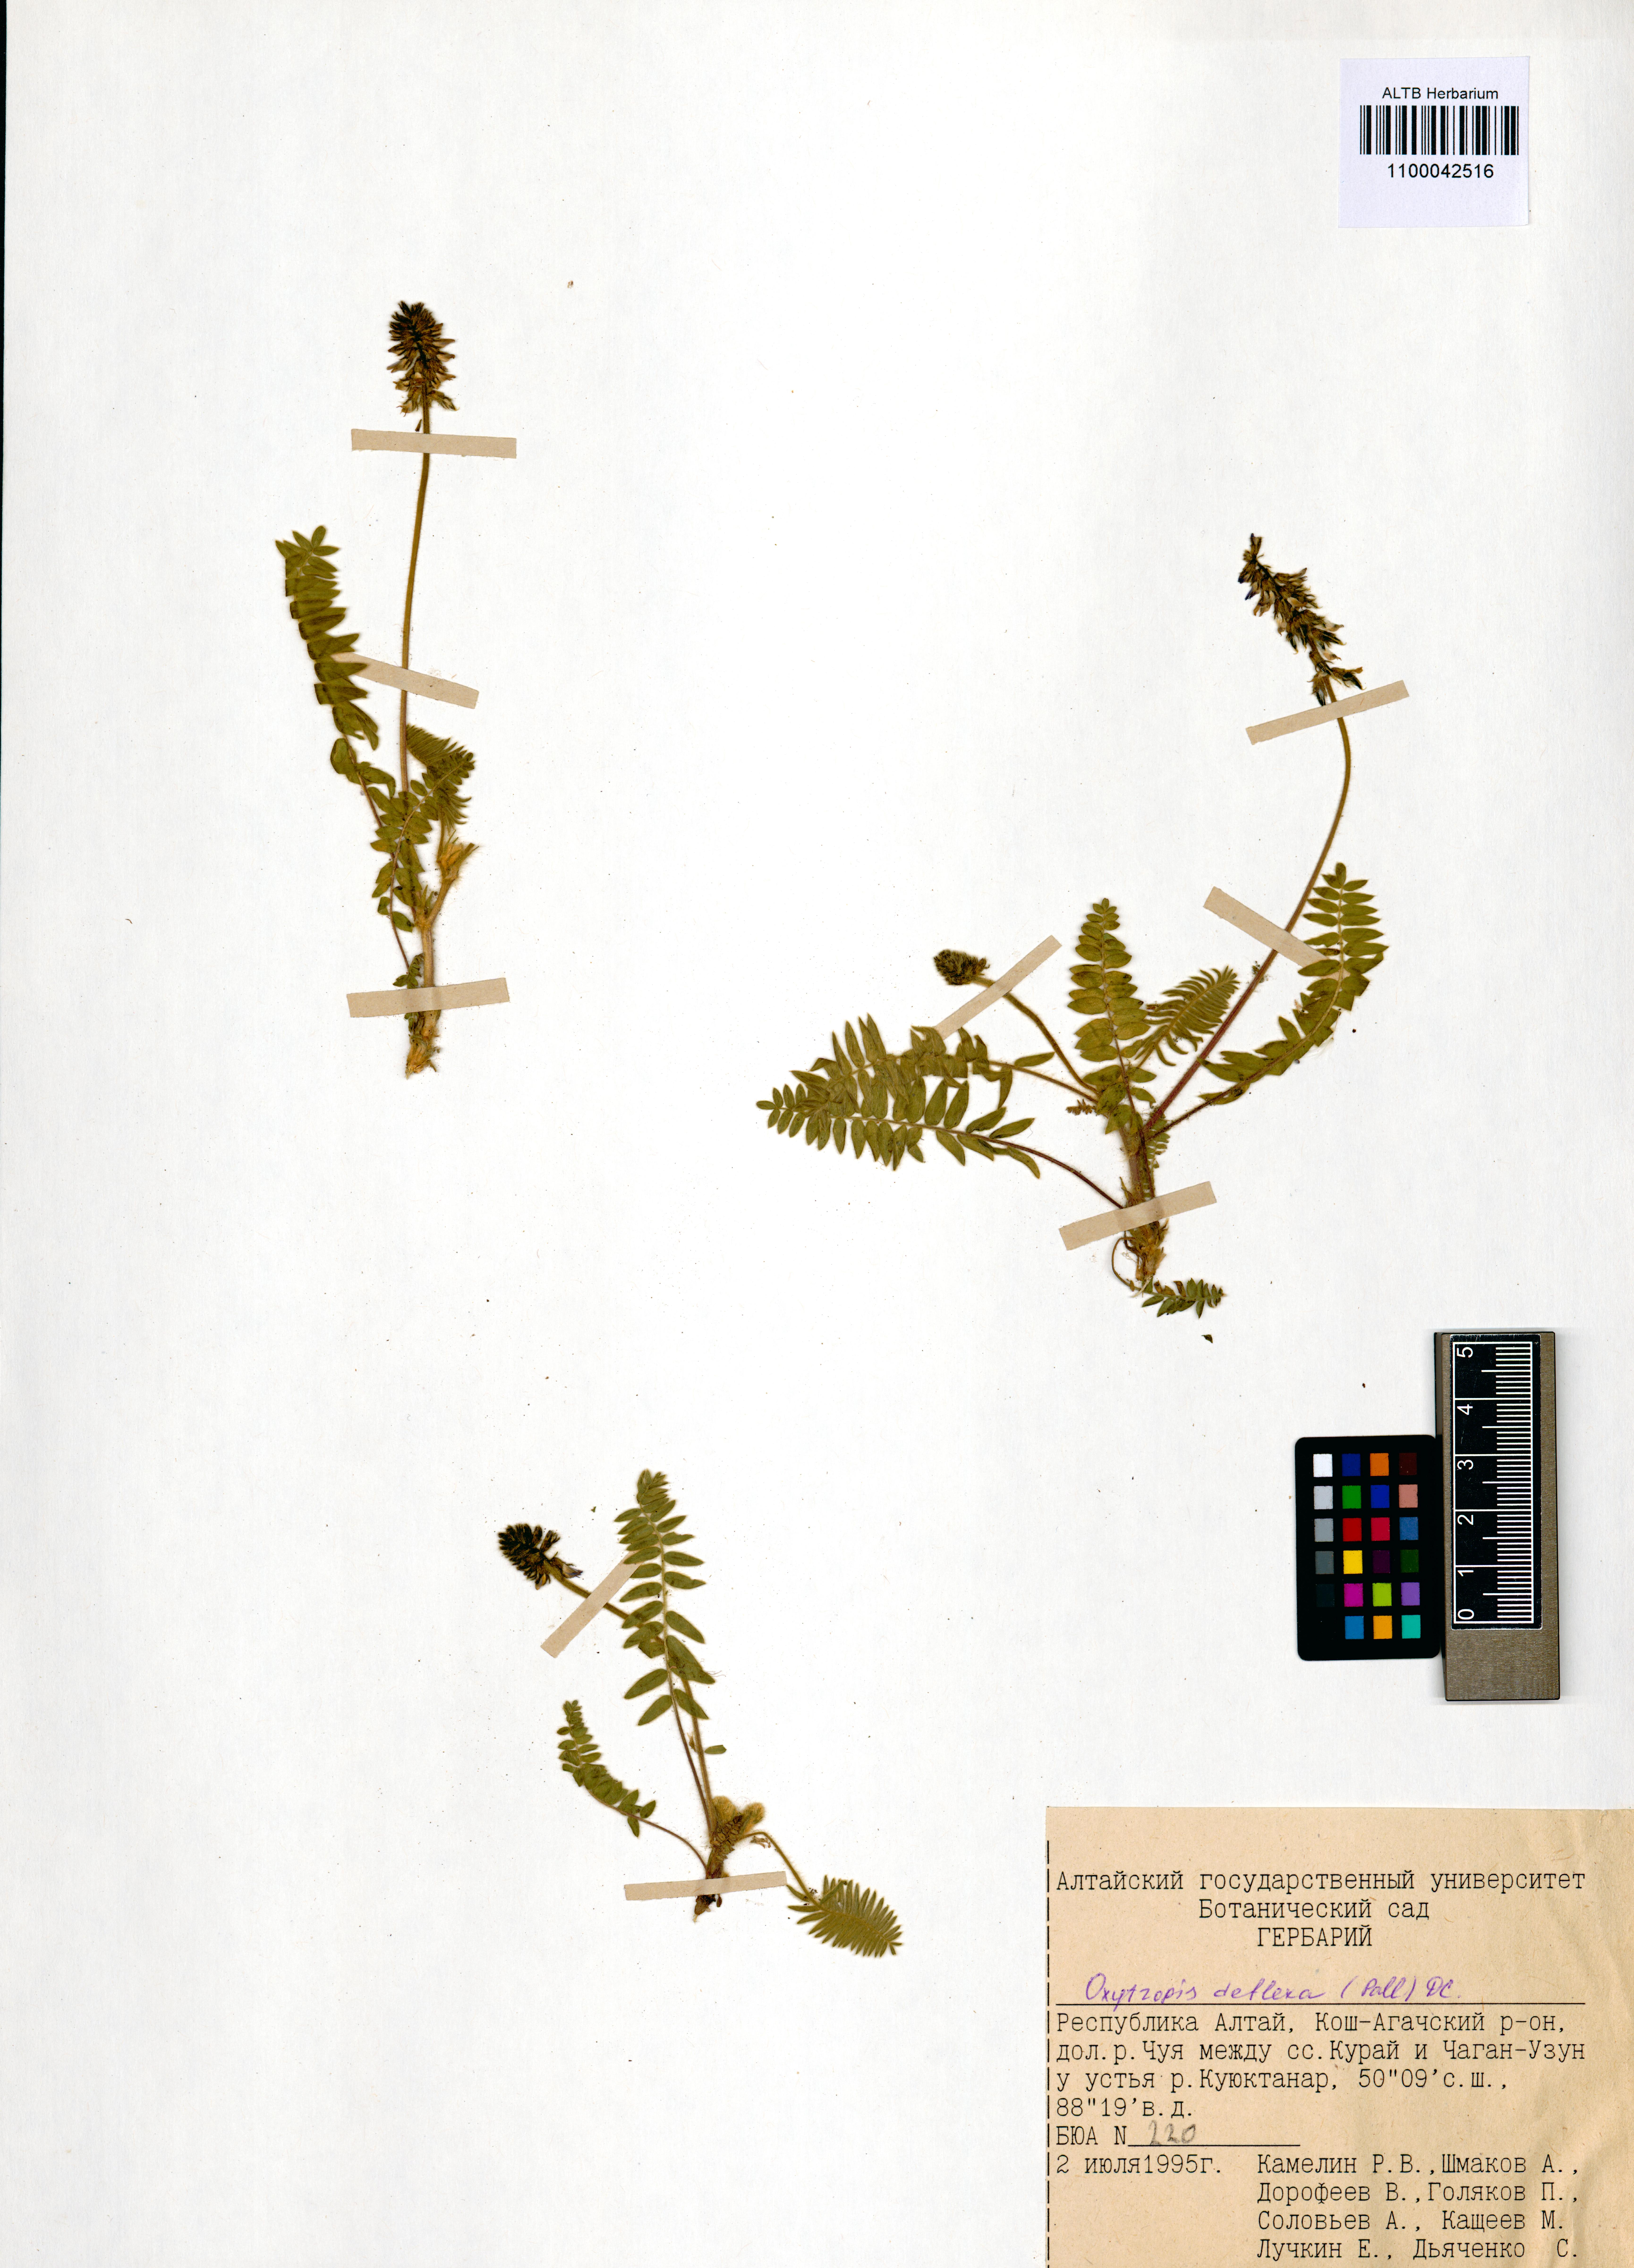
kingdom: Plantae
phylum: Tracheophyta
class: Magnoliopsida
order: Fabales
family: Fabaceae
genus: Oxytropis
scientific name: Oxytropis deflexa
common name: Stemmed oxytrope
